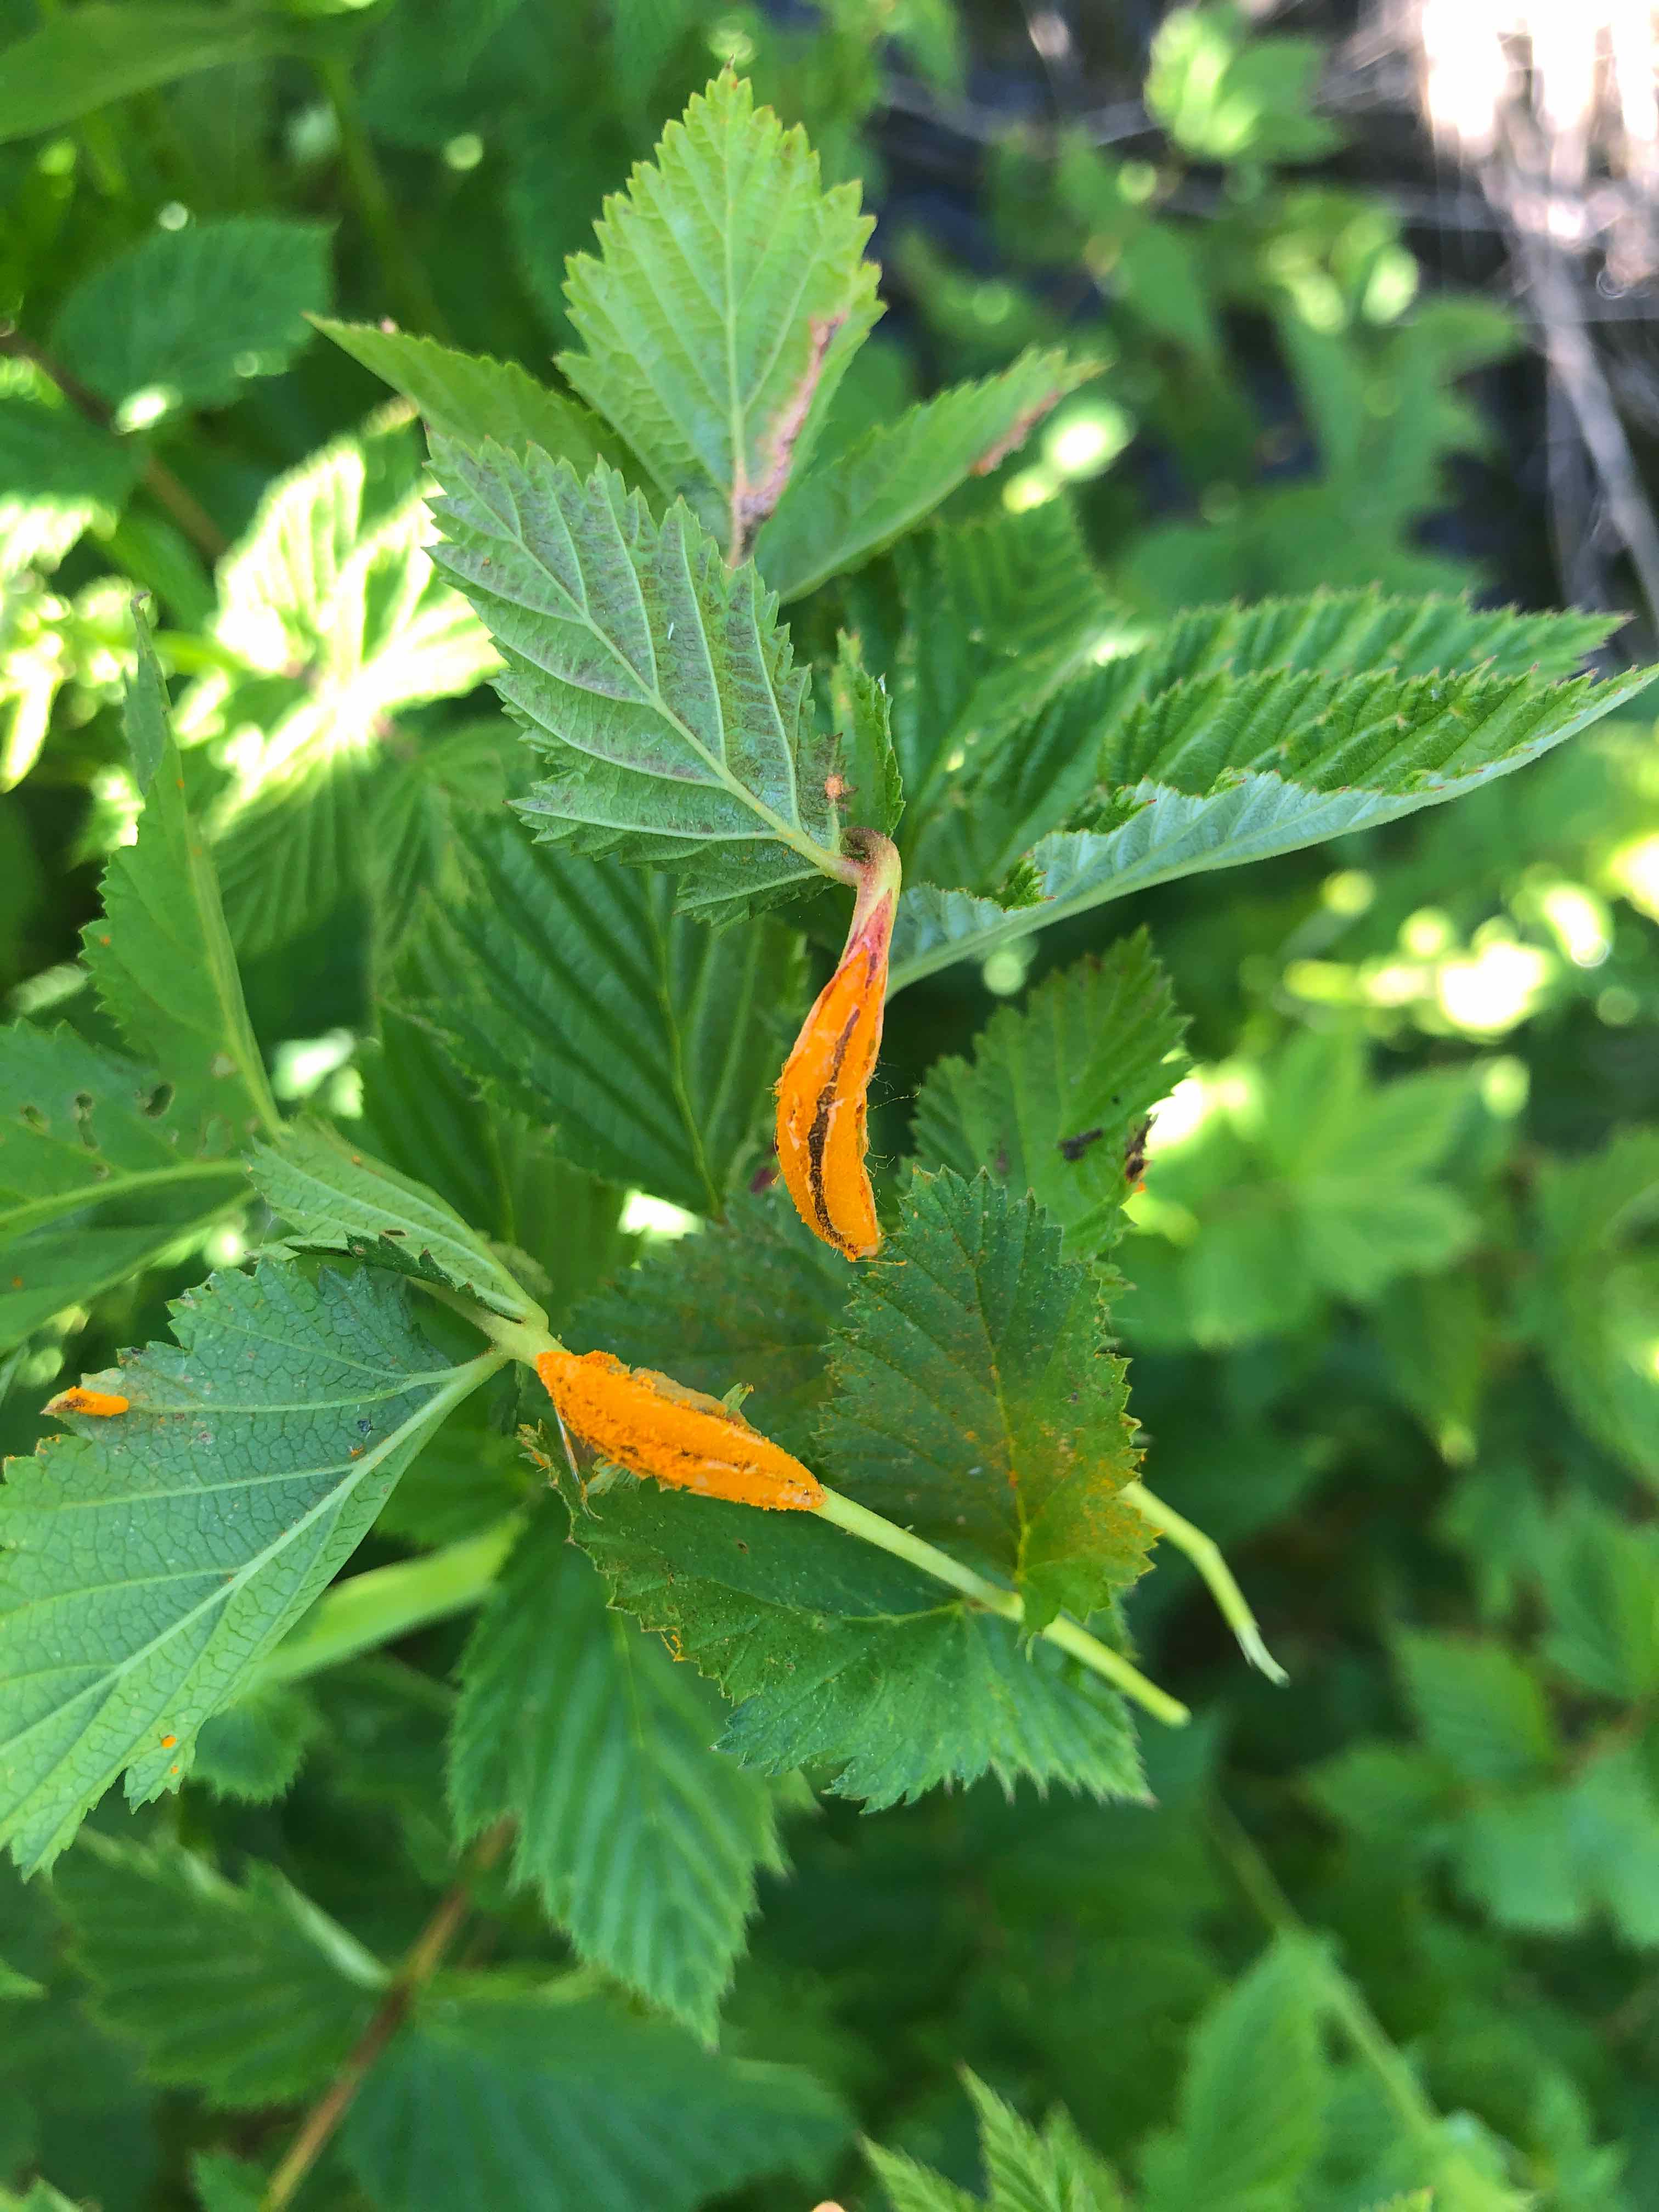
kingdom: Fungi
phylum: Basidiomycota
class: Pucciniomycetes
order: Pucciniales
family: Raveneliaceae
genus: Triphragmium
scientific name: Triphragmium ulmariae
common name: almindelig mjødurtrust
